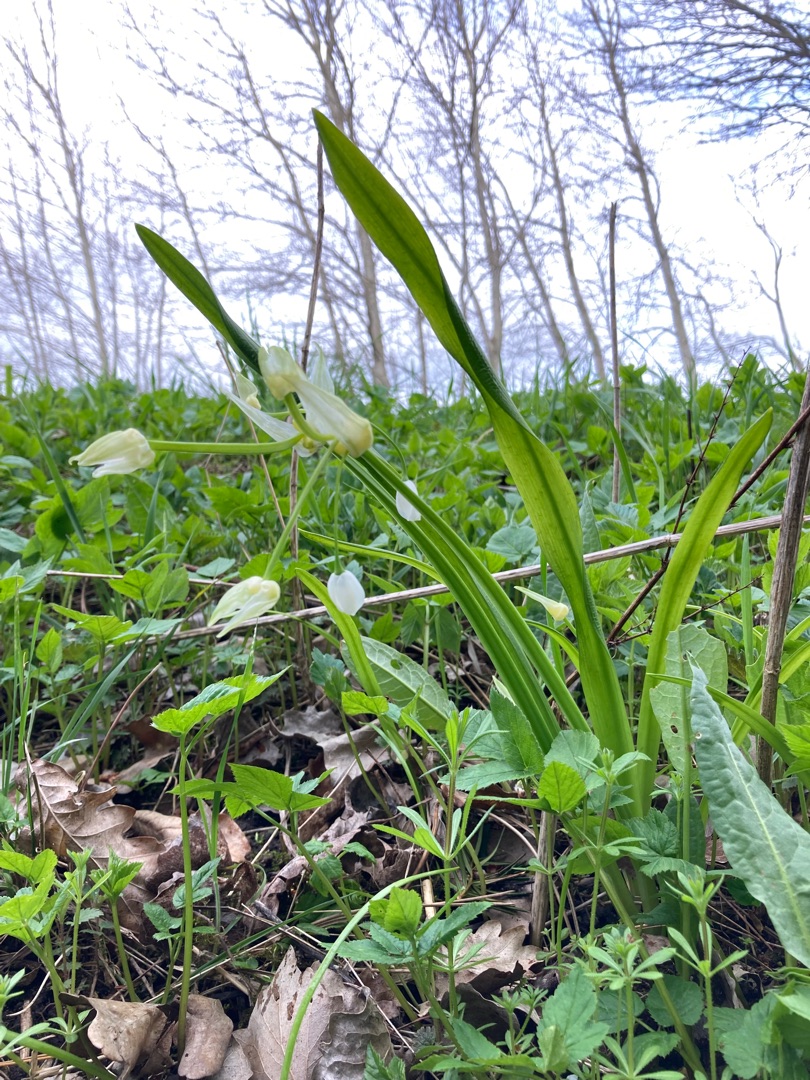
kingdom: Plantae
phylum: Tracheophyta
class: Liliopsida
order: Asparagales
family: Amaryllidaceae
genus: Allium
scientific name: Allium paradoxum
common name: Spøjs løg
